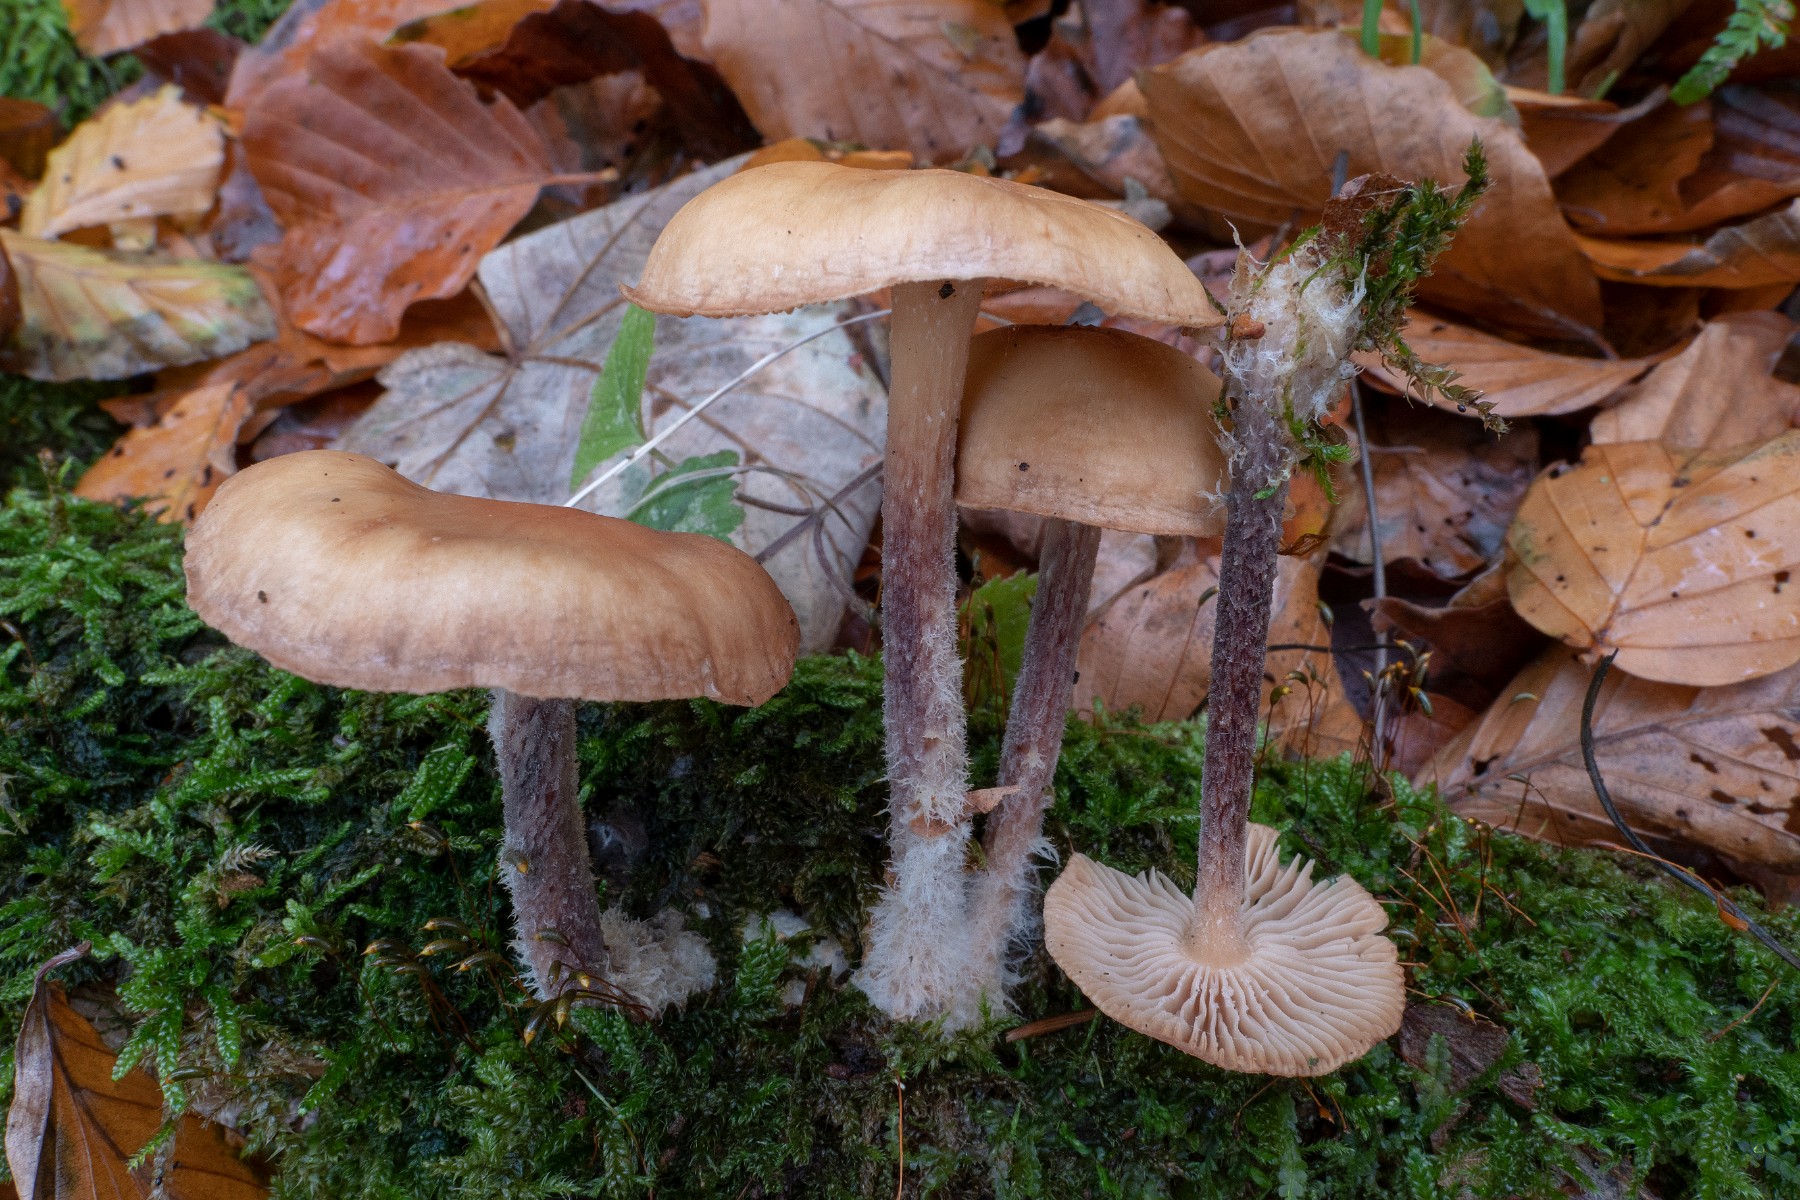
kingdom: Fungi
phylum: Basidiomycota
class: Agaricomycetes
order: Agaricales
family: Omphalotaceae
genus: Collybiopsis
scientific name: Collybiopsis peronata
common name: bestøvlet fladhat
